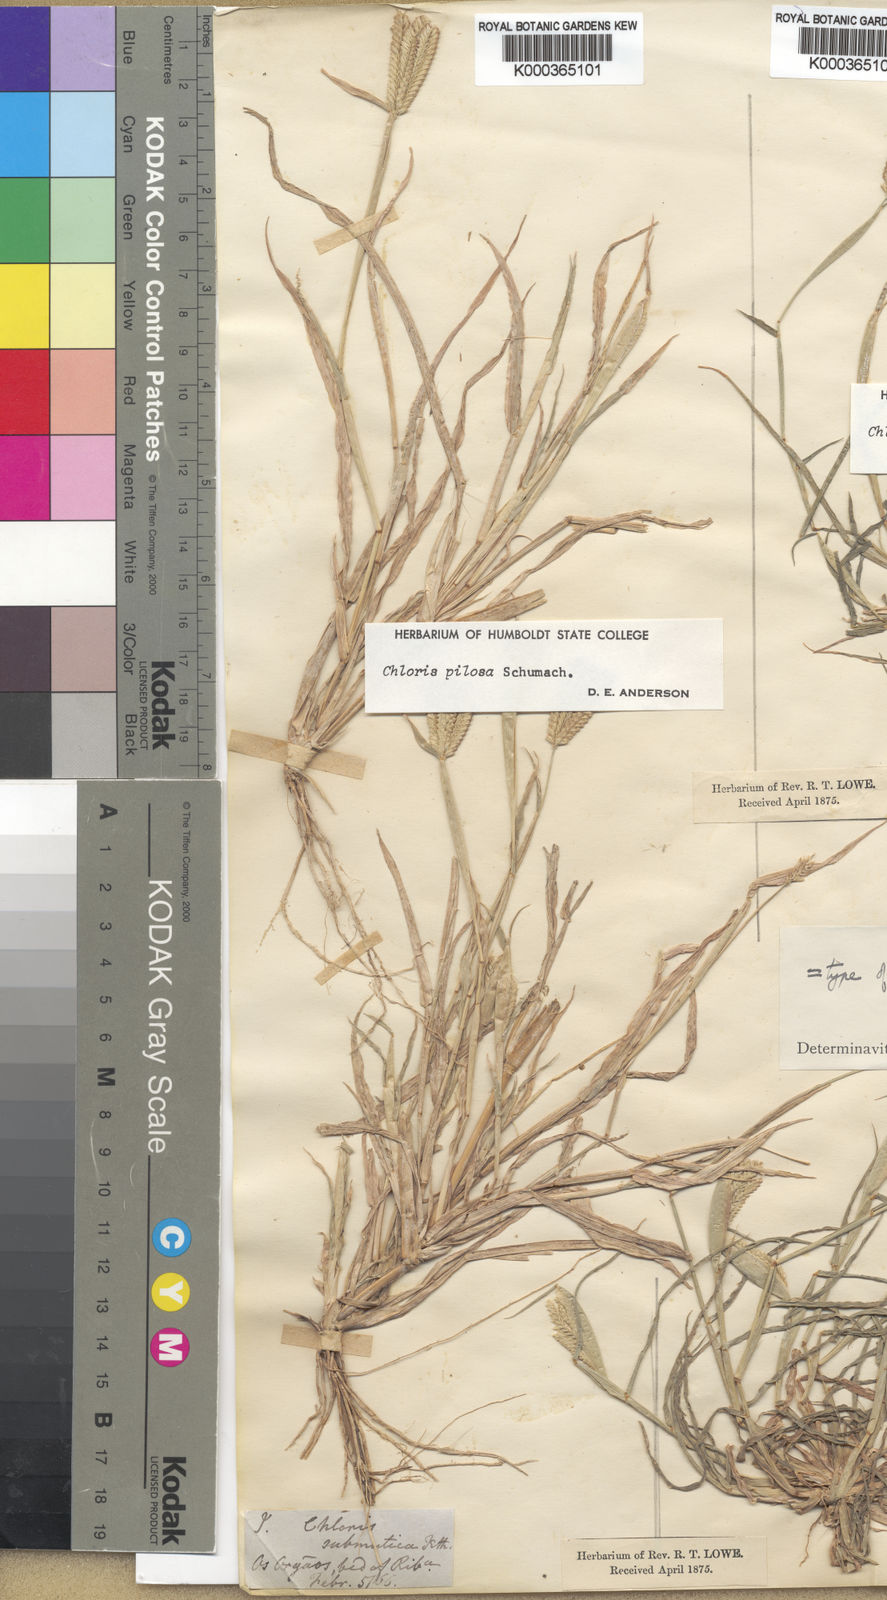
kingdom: Plantae
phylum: Tracheophyta
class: Liliopsida
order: Poales
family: Poaceae
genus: Chloris
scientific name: Chloris pilosa
